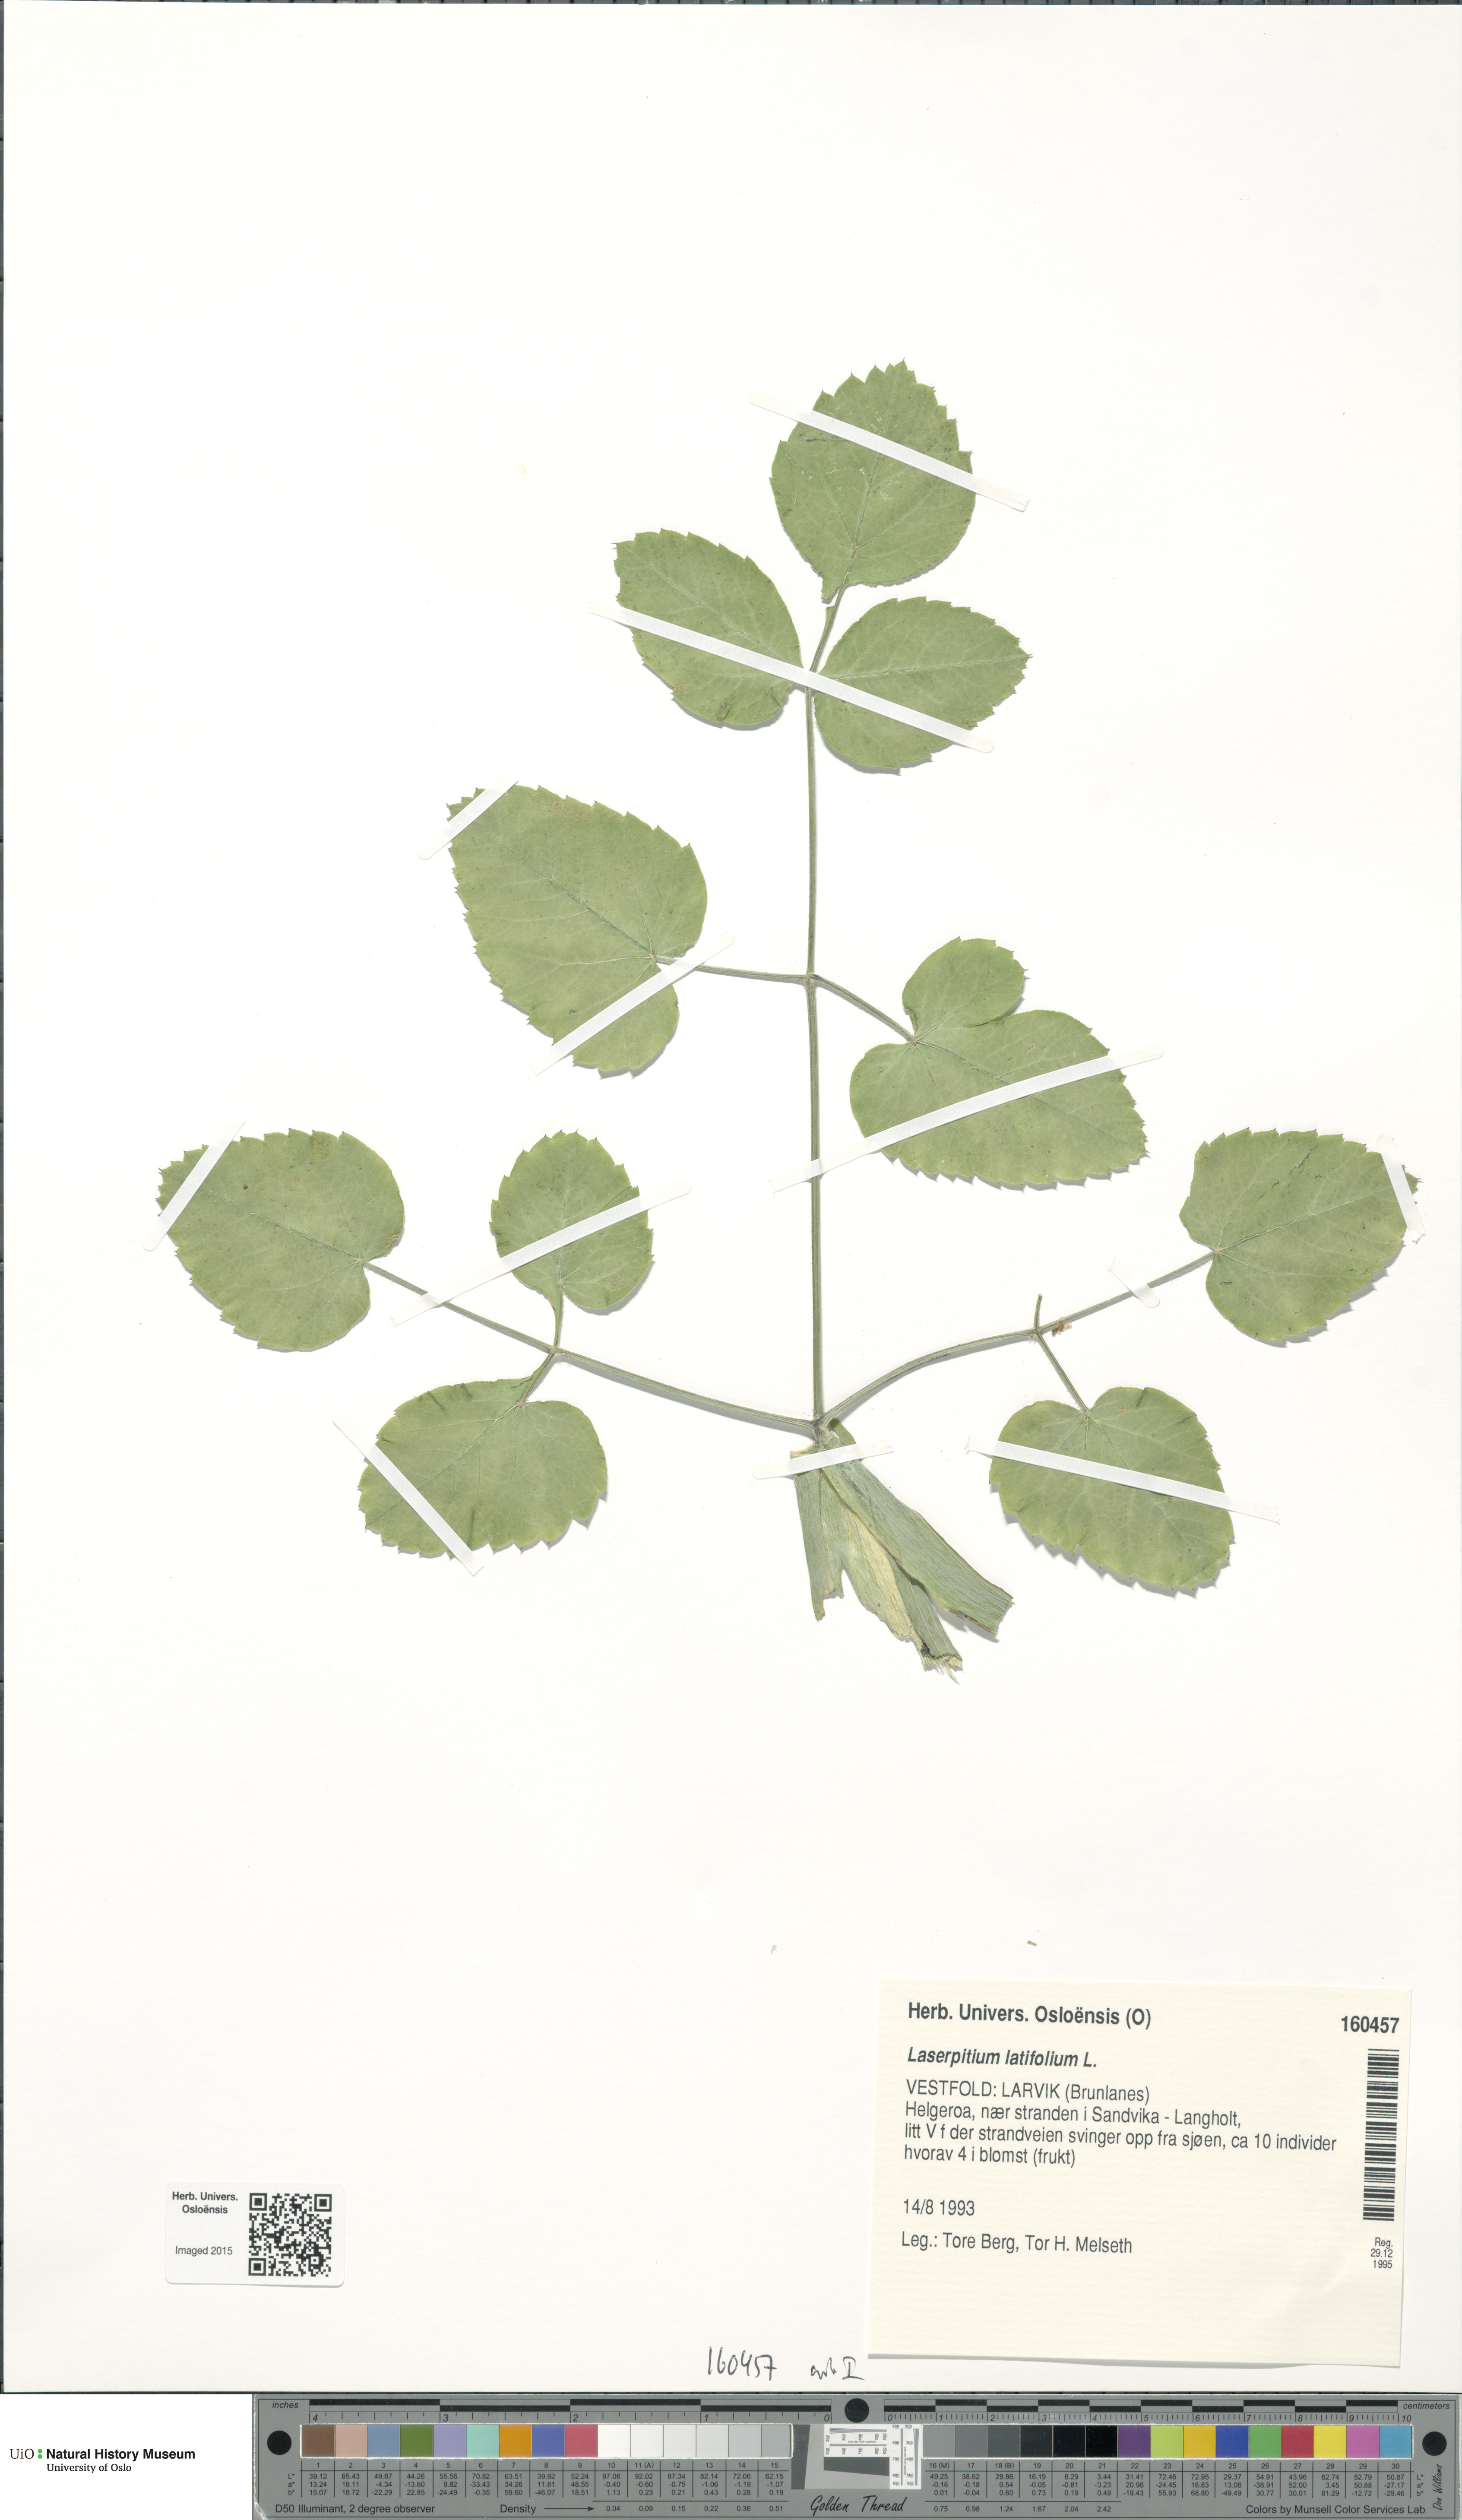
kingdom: Plantae
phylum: Tracheophyta
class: Magnoliopsida
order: Apiales
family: Apiaceae
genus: Laserpitium
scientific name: Laserpitium latifolium
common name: Broadleaf sermountain
